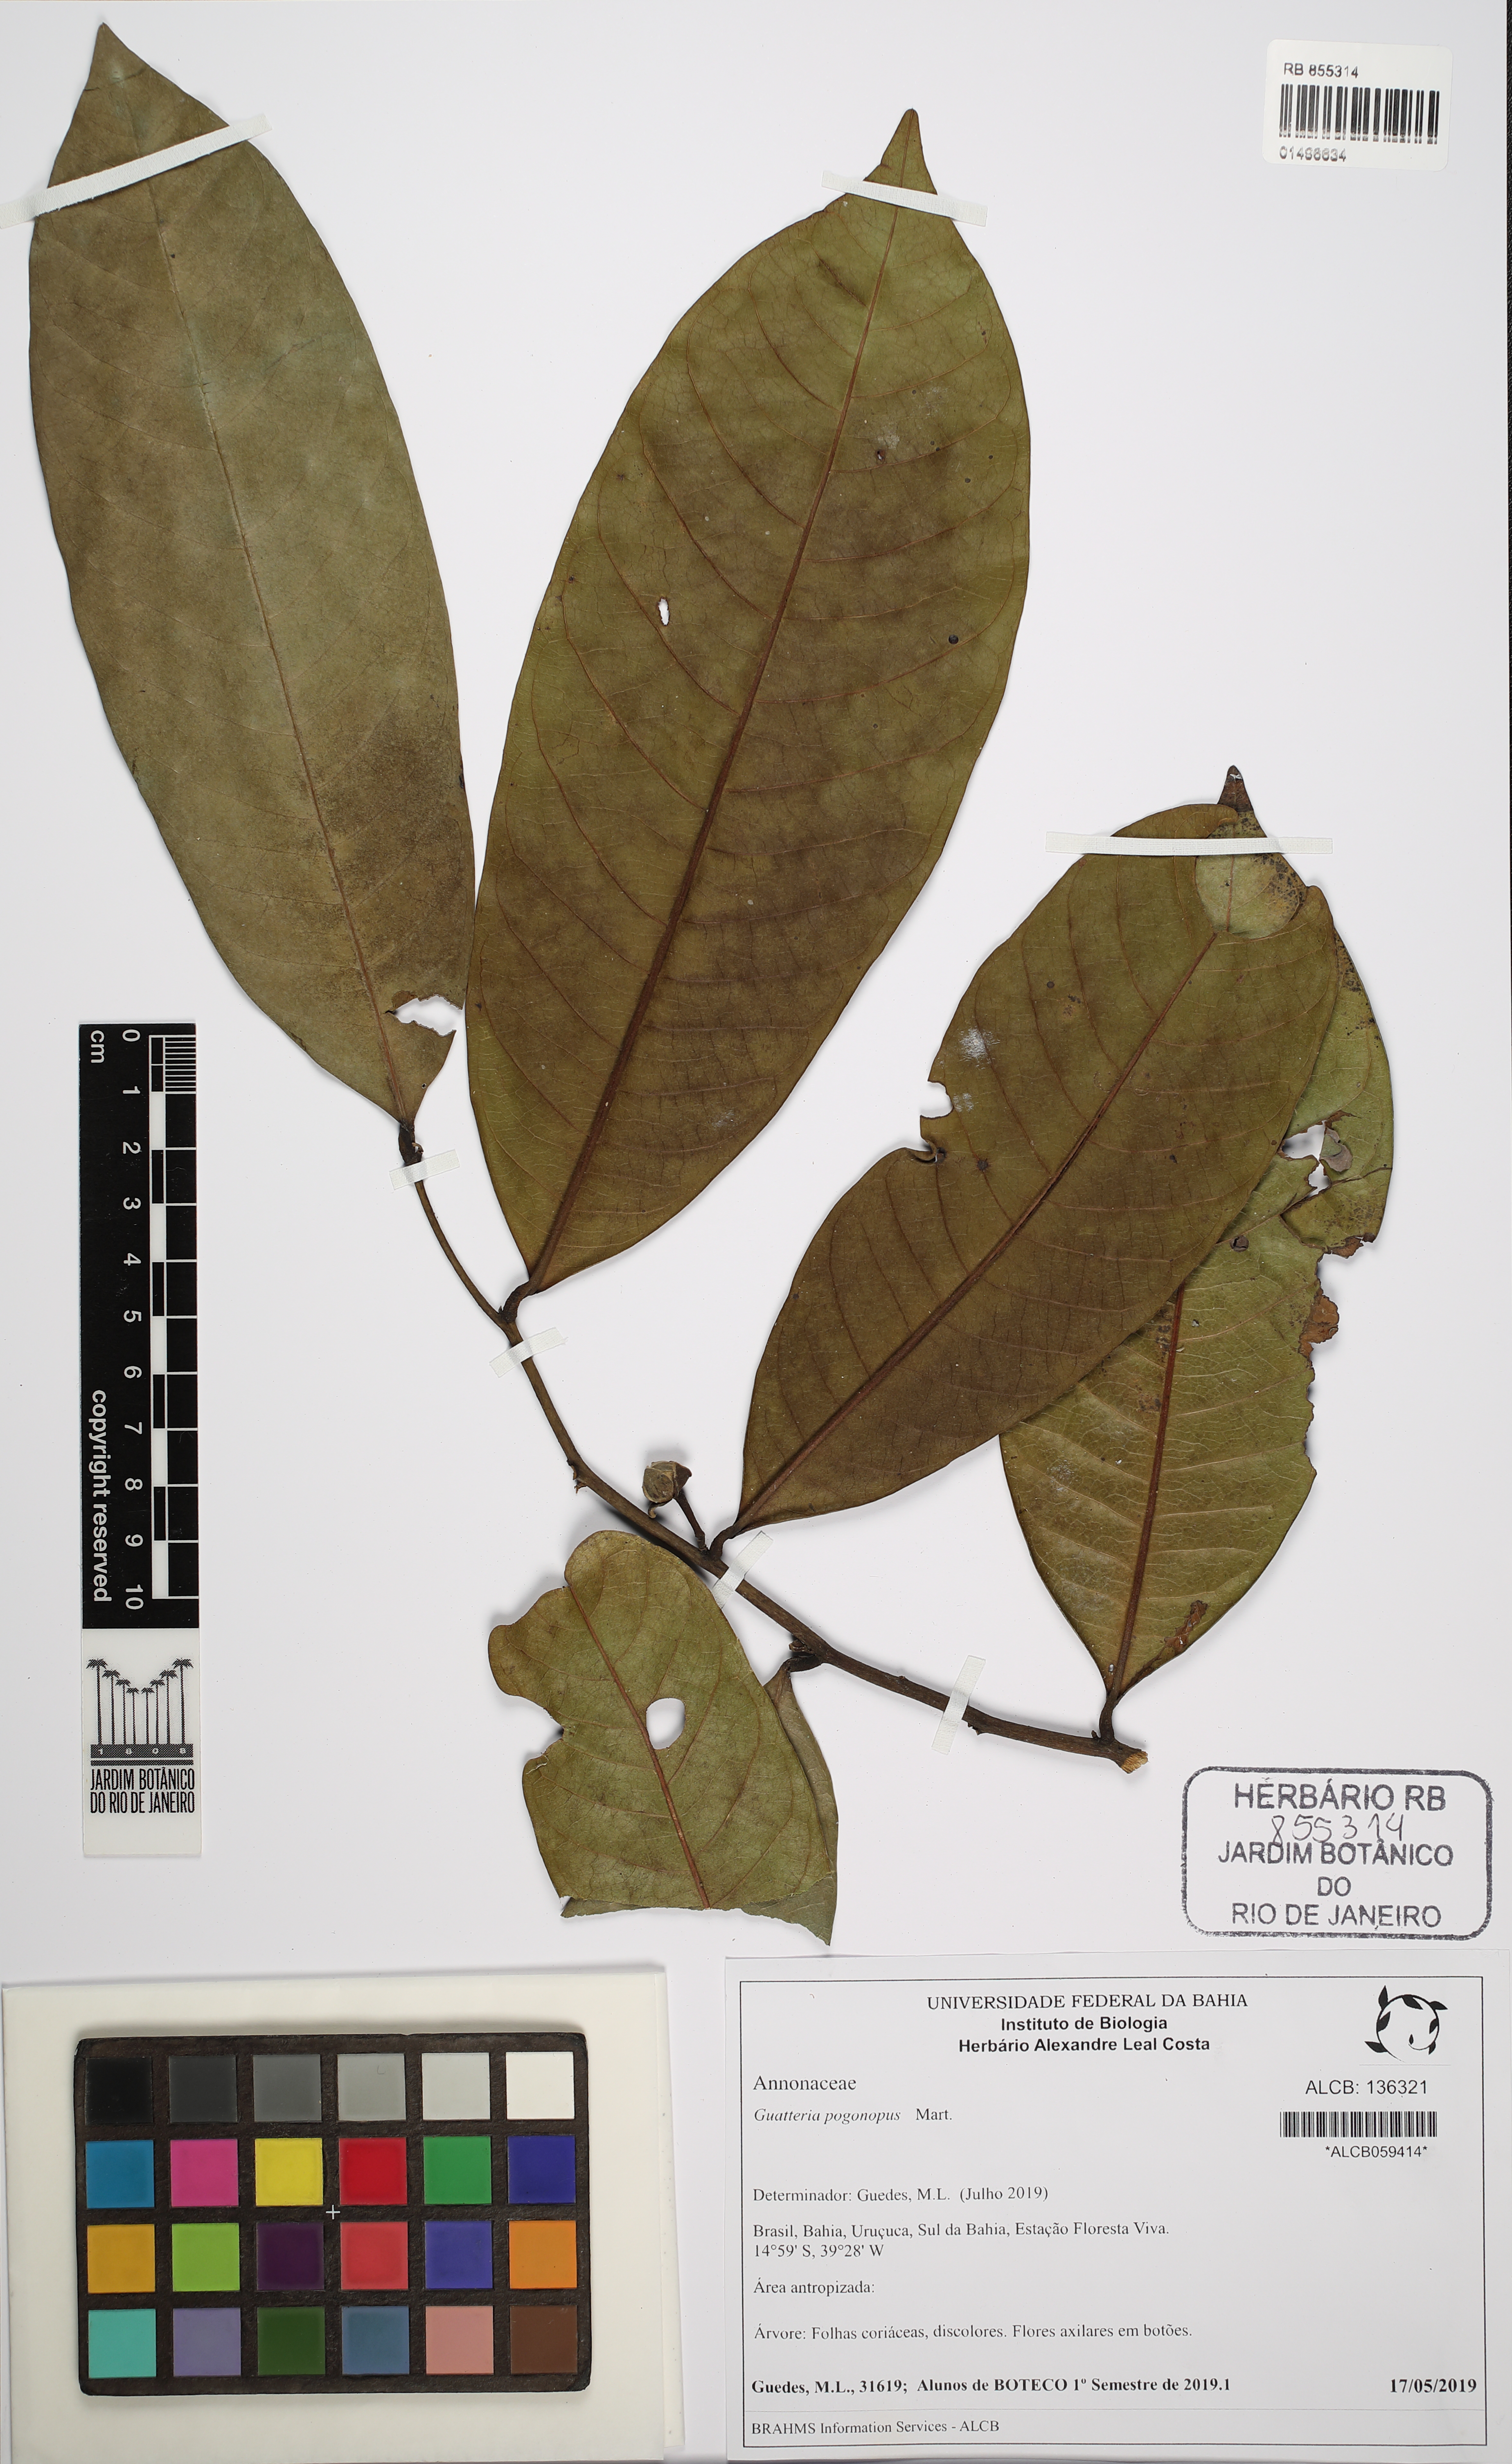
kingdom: Plantae
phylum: Tracheophyta
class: Magnoliopsida
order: Magnoliales
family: Annonaceae
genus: Guatteria
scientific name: Guatteria pogonopus
